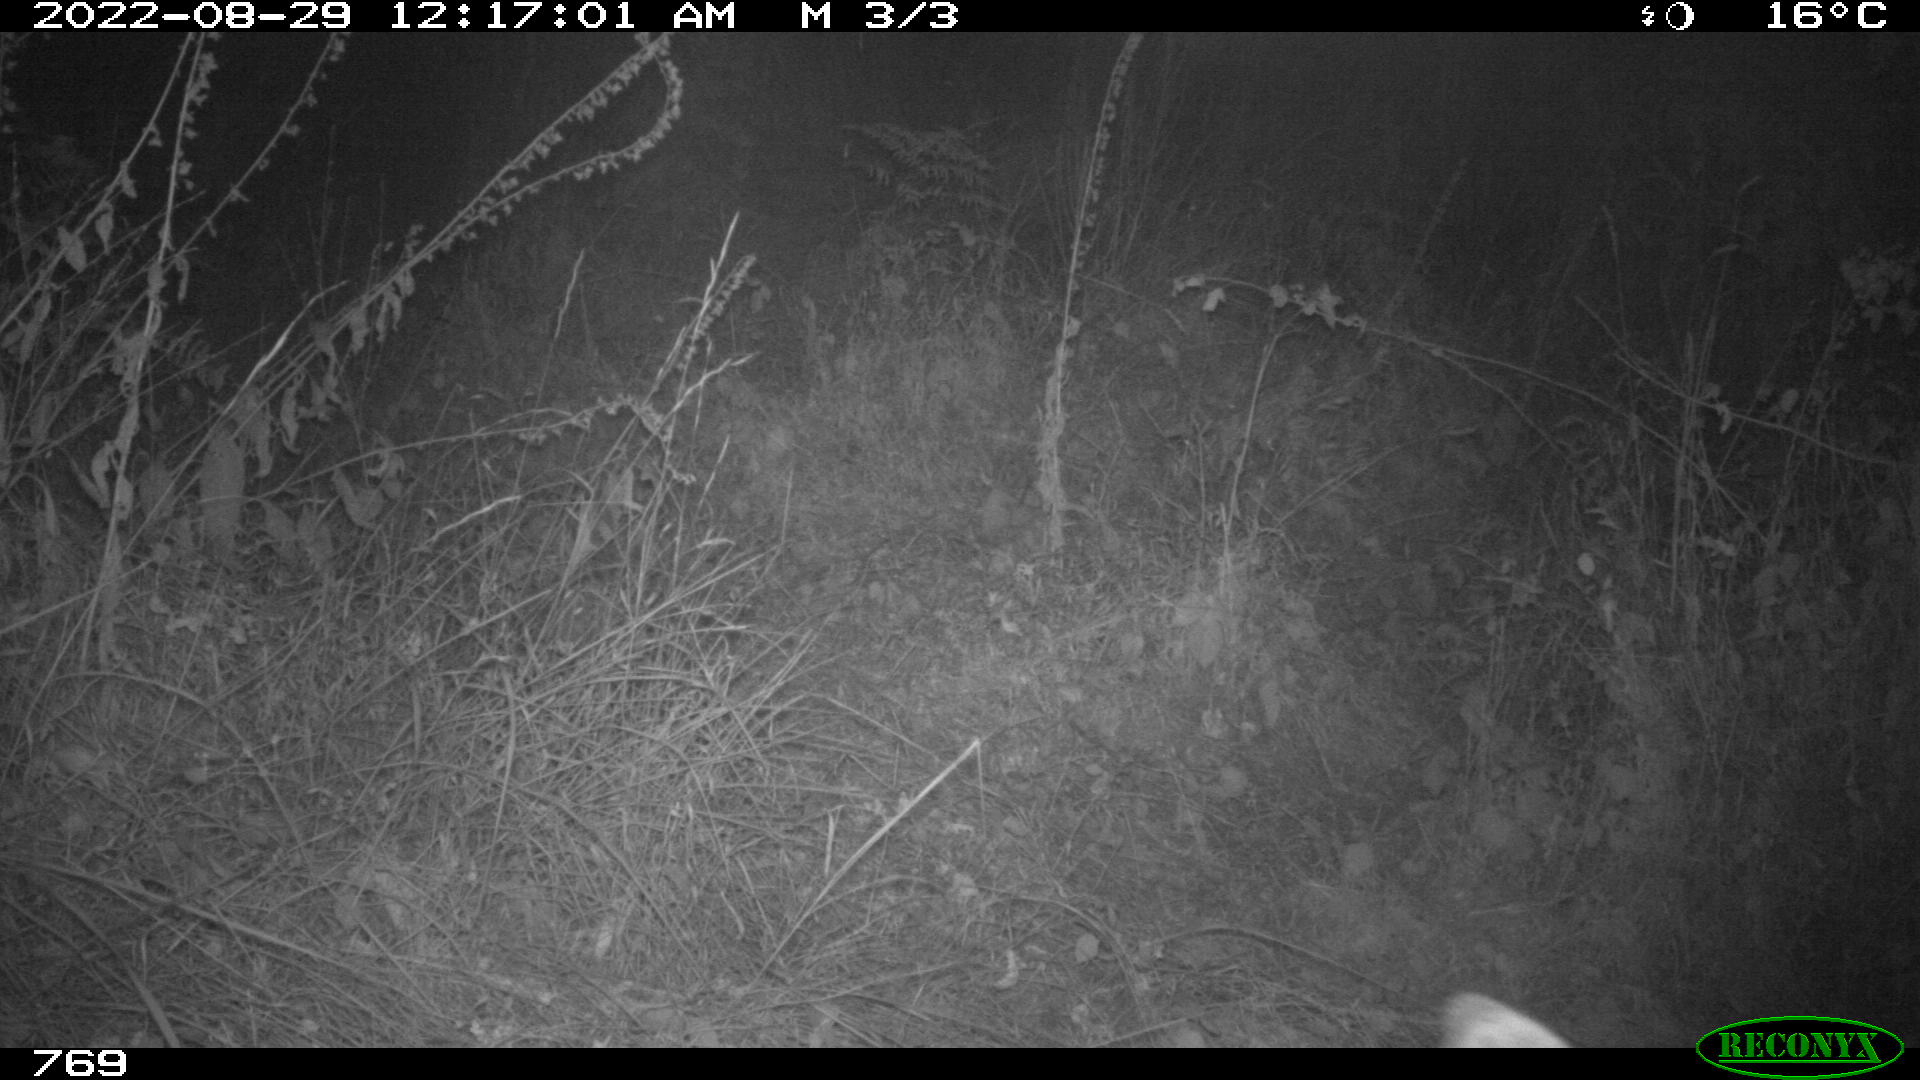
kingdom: Animalia
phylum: Chordata
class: Mammalia
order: Artiodactyla
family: Cervidae
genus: Capreolus
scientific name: Capreolus capreolus
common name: Western roe deer
